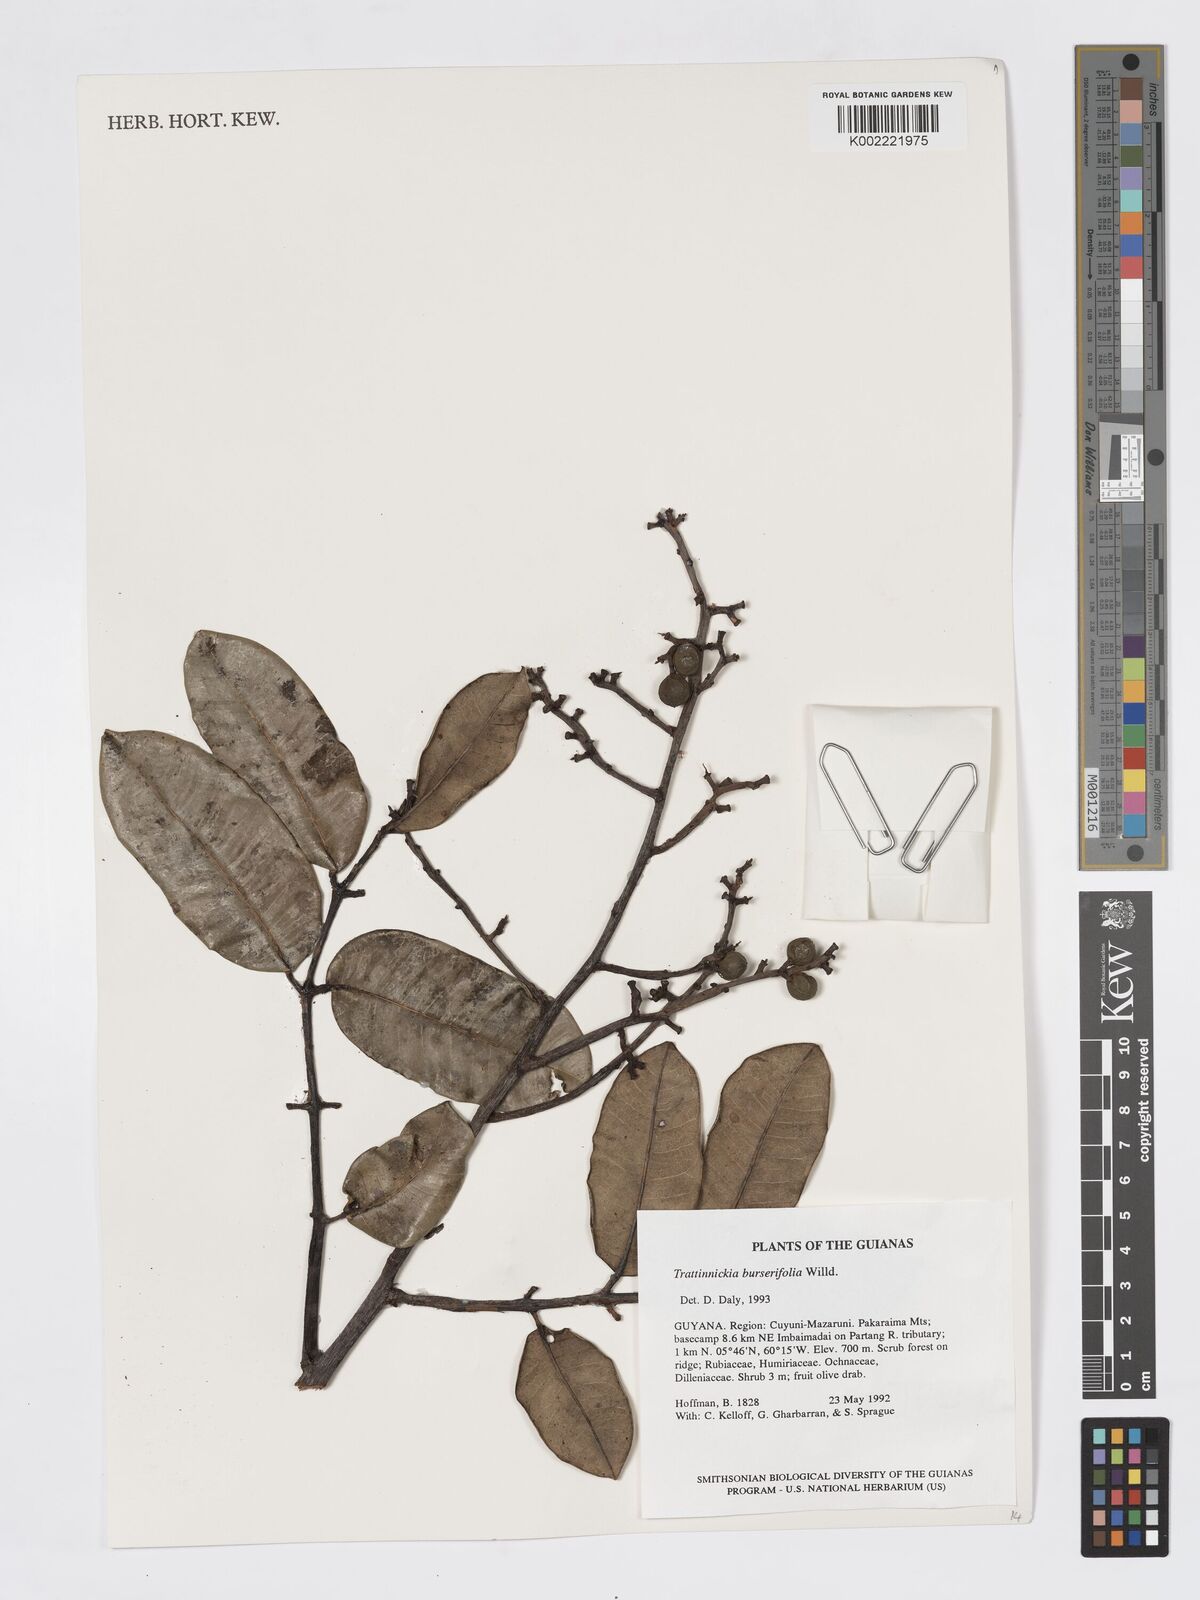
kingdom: Plantae
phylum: Tracheophyta
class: Magnoliopsida
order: Sapindales
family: Burseraceae
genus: Trattinnickia
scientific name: Trattinnickia burserifolia
